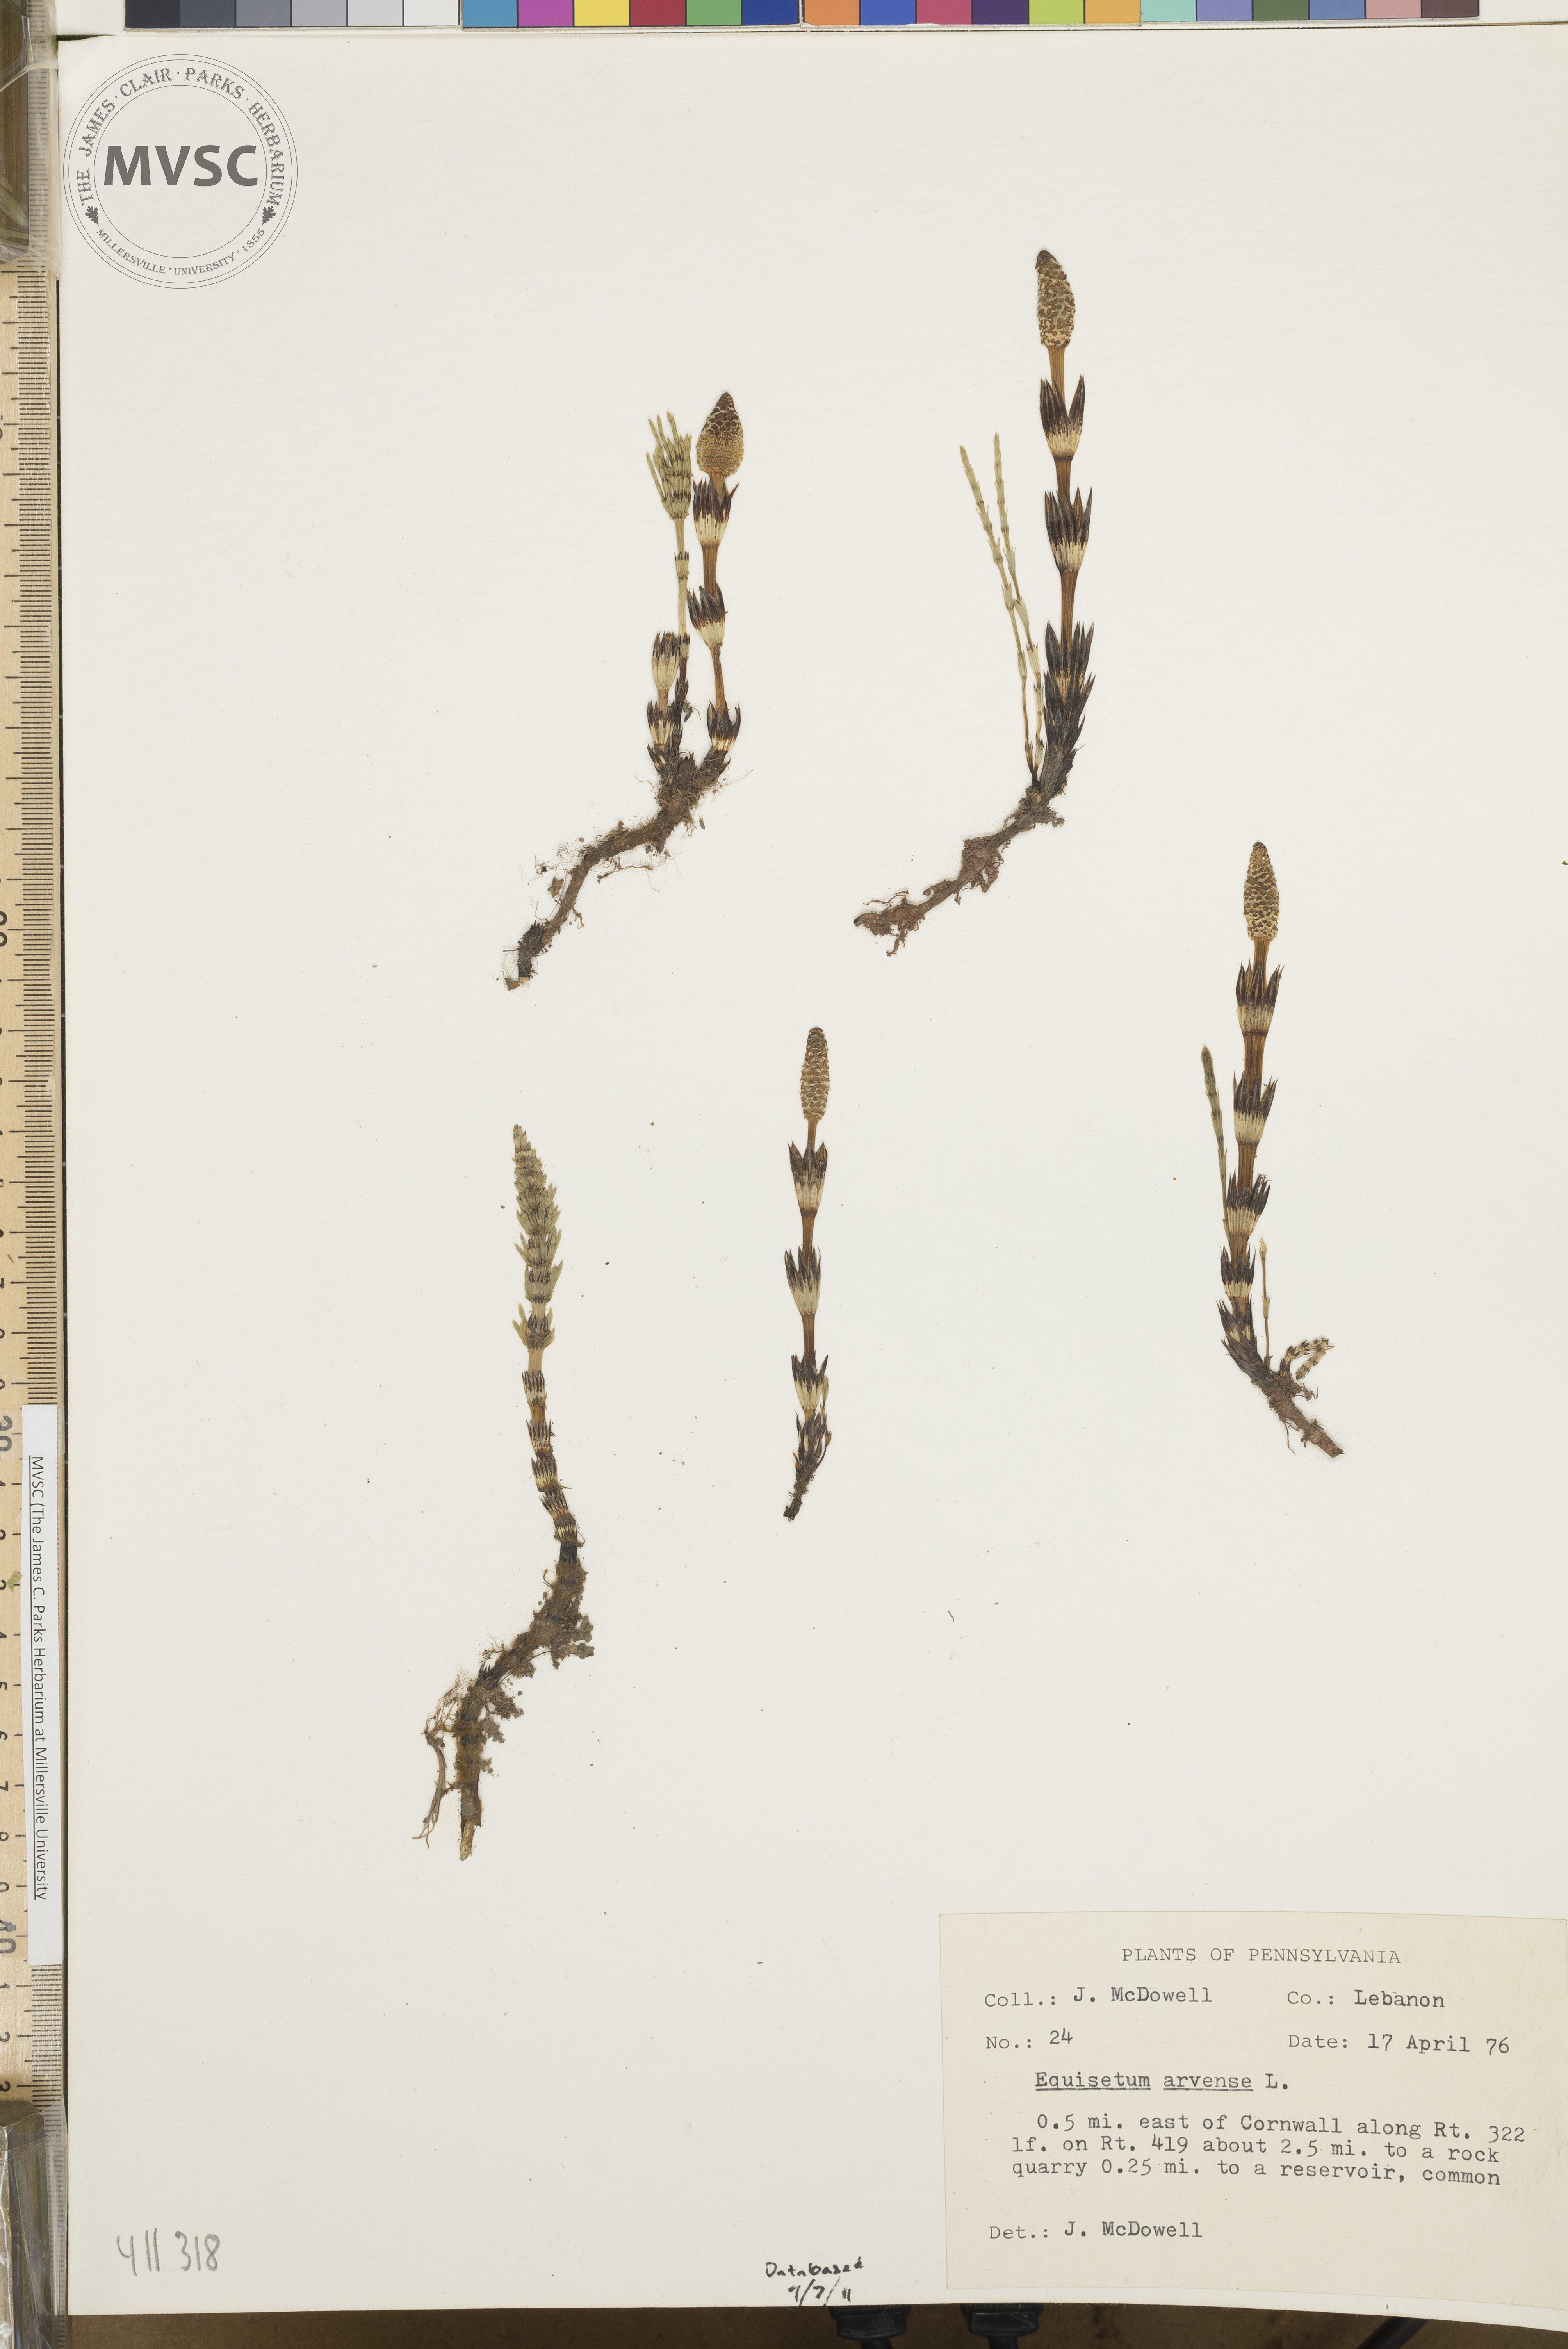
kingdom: Plantae
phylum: Tracheophyta
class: Polypodiopsida
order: Equisetales
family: Equisetaceae
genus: Equisetum
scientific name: Equisetum arvense
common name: Field horsetail
